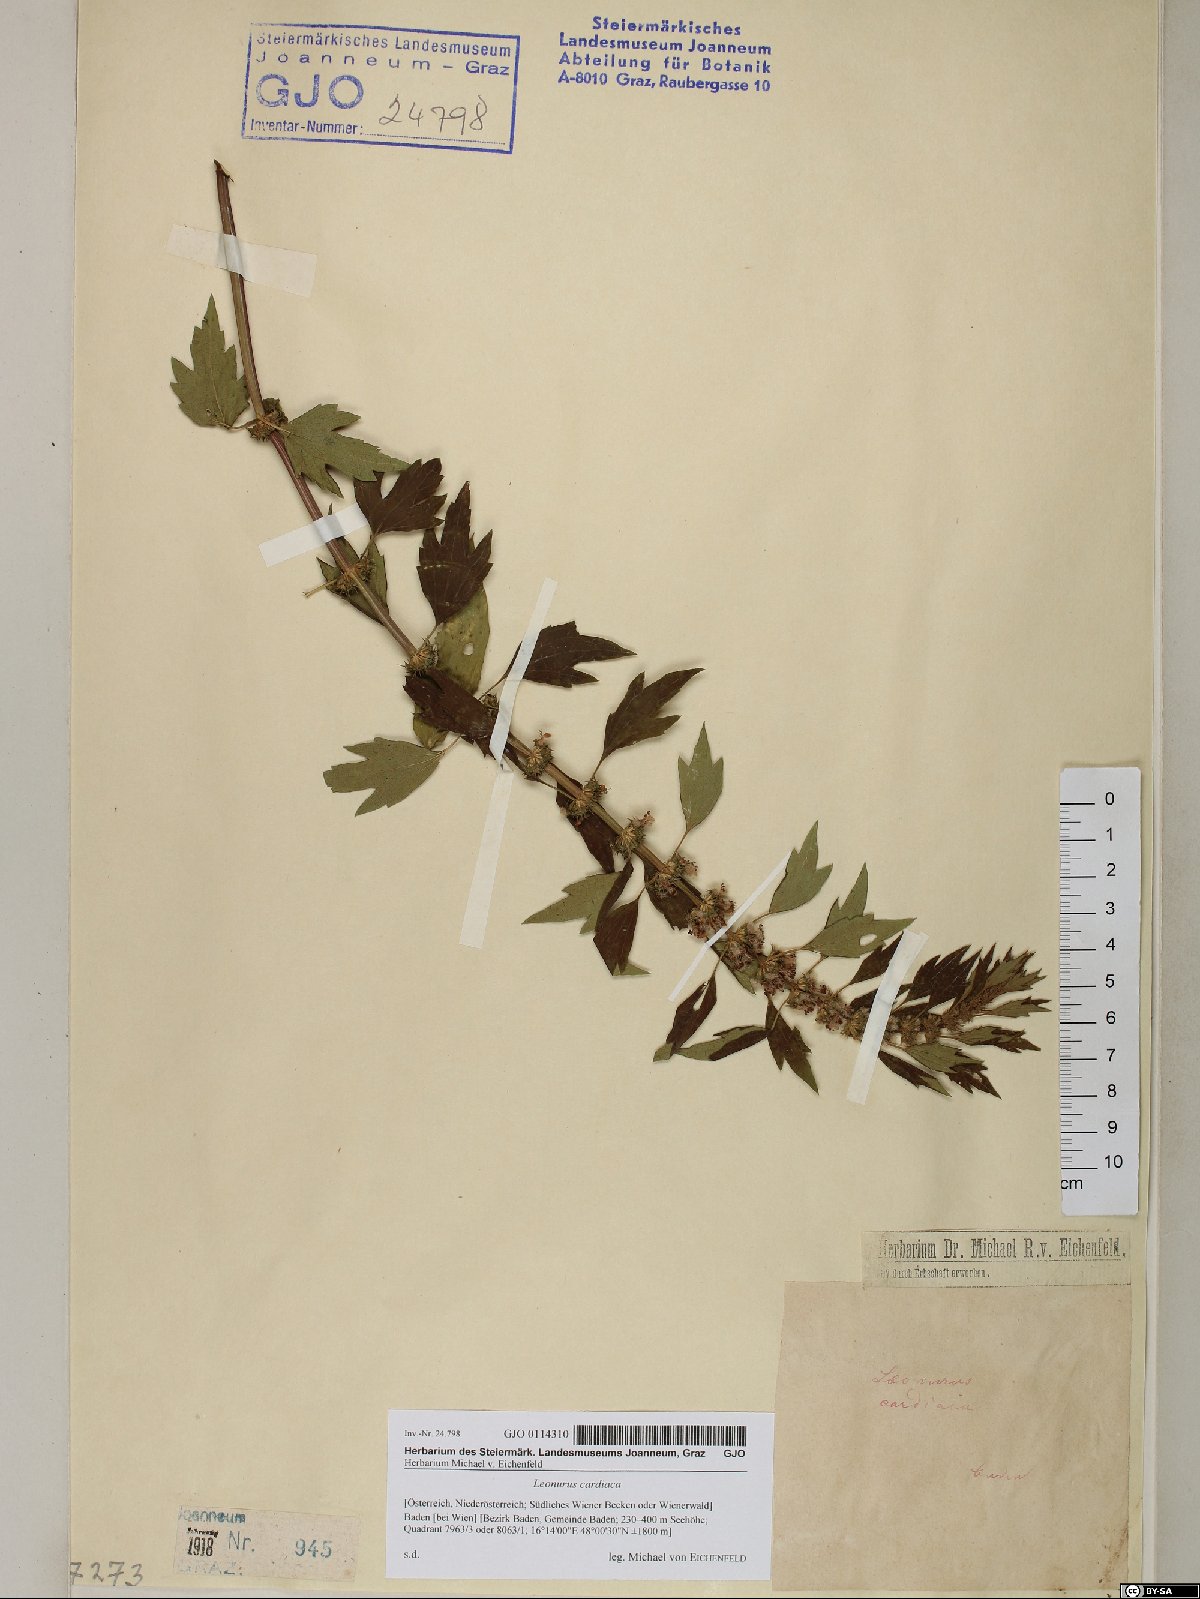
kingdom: Plantae
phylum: Tracheophyta
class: Magnoliopsida
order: Lamiales
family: Lamiaceae
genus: Leonurus
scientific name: Leonurus cardiaca
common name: Motherwort
